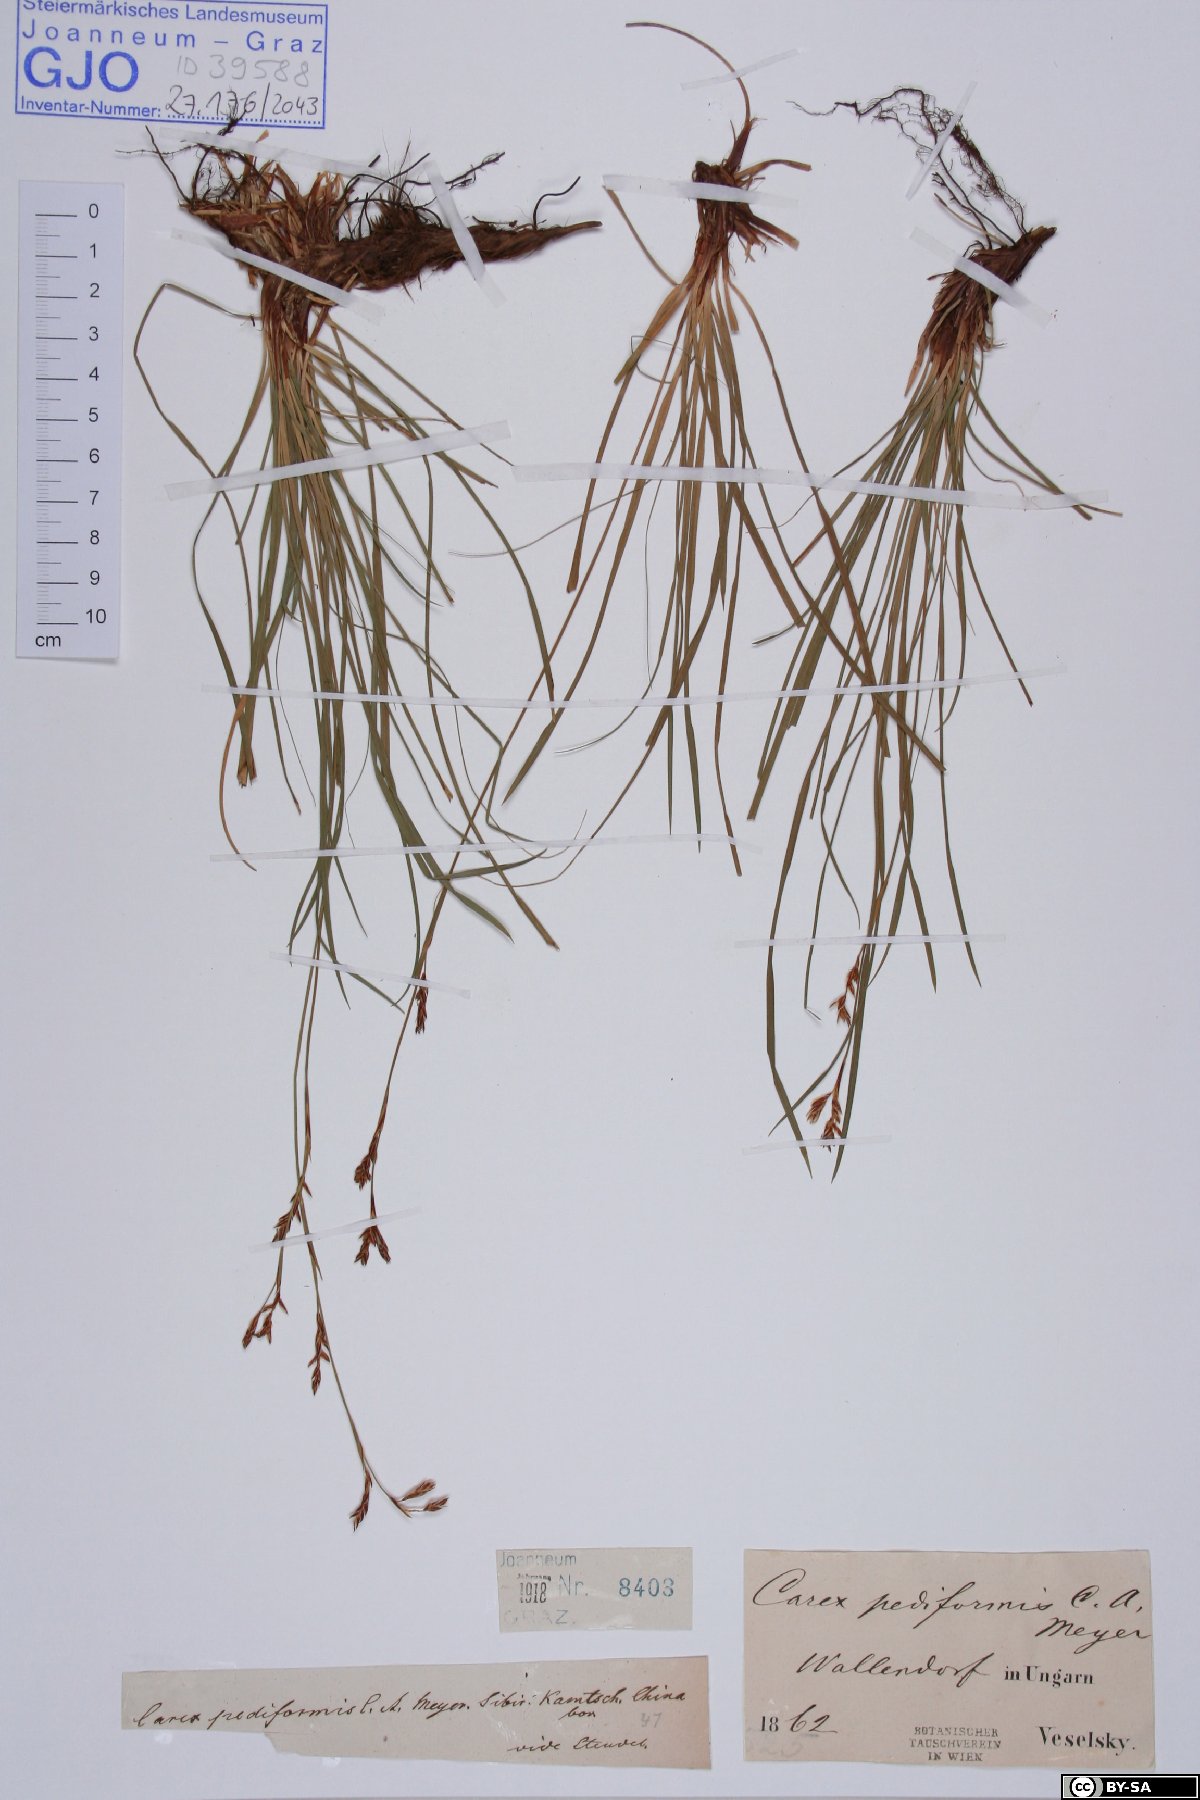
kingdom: Plantae
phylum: Tracheophyta
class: Liliopsida
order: Poales
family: Cyperaceae
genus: Carex
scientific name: Carex pediformis
